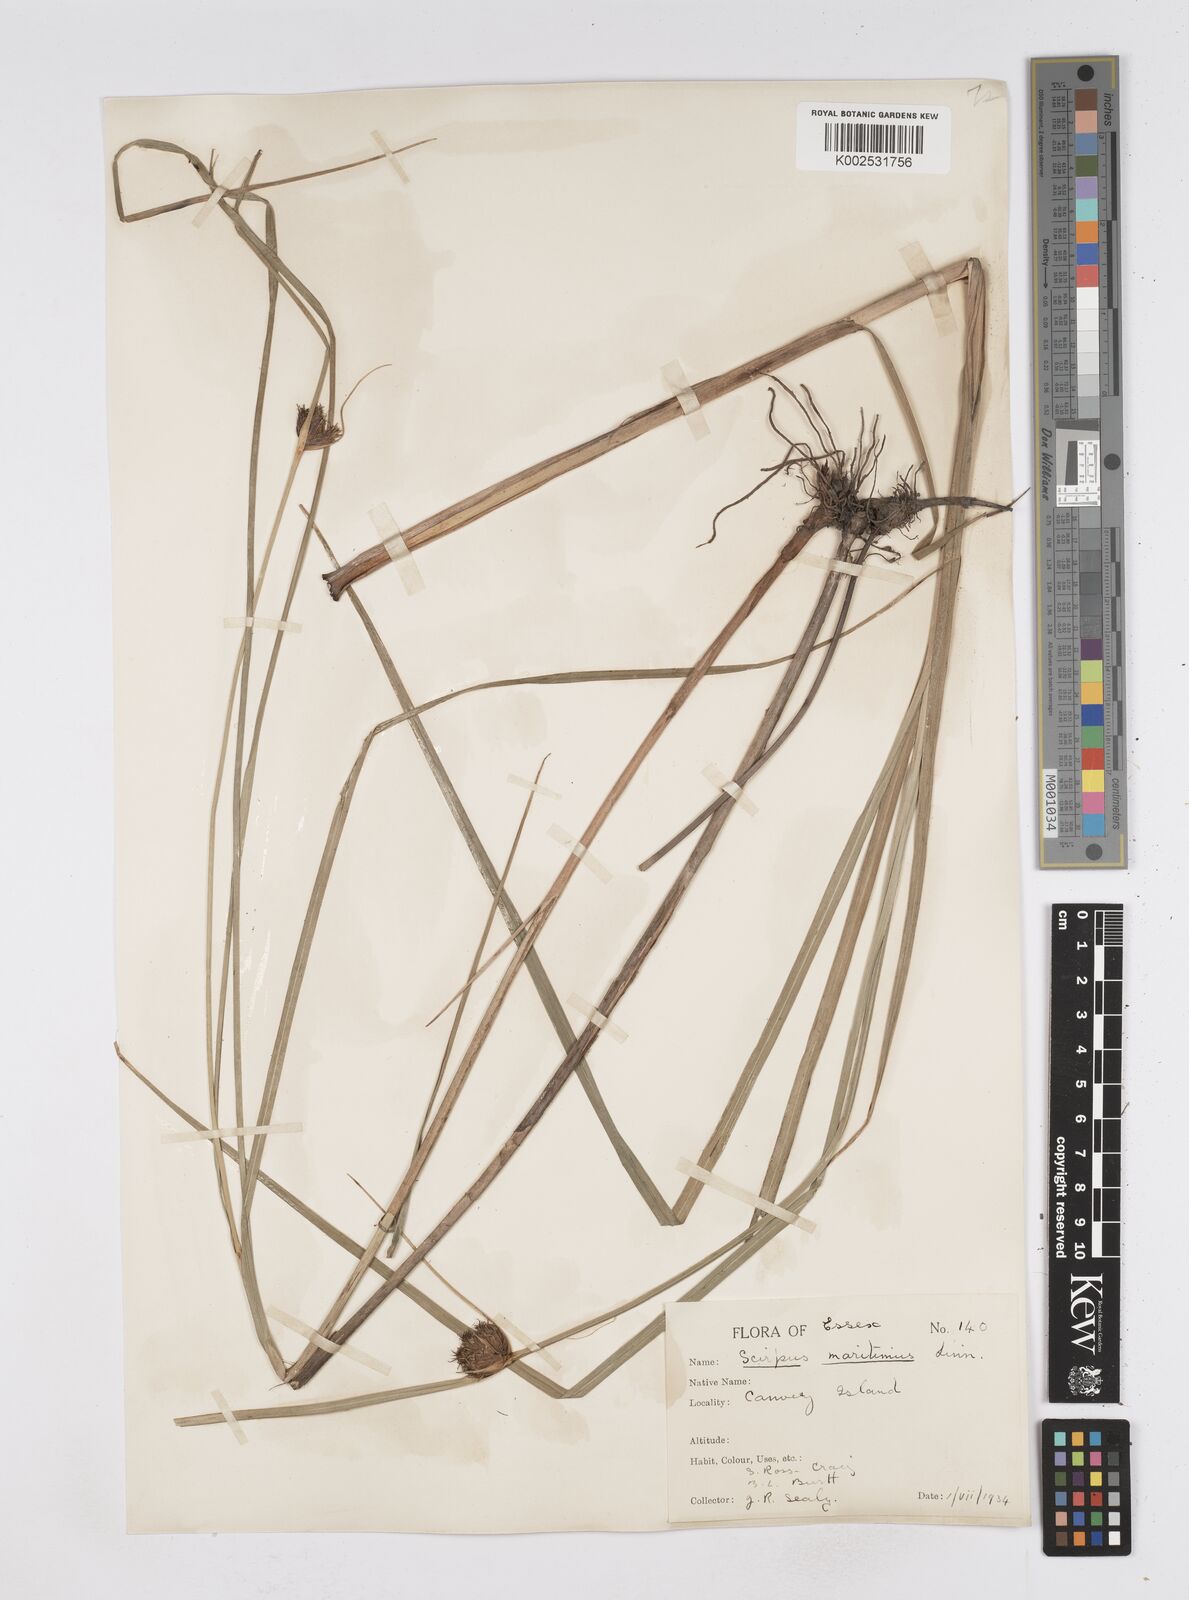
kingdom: Plantae
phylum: Tracheophyta
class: Liliopsida
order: Poales
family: Cyperaceae
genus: Bolboschoenus
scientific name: Bolboschoenus maritimus
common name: Sea club-rush
